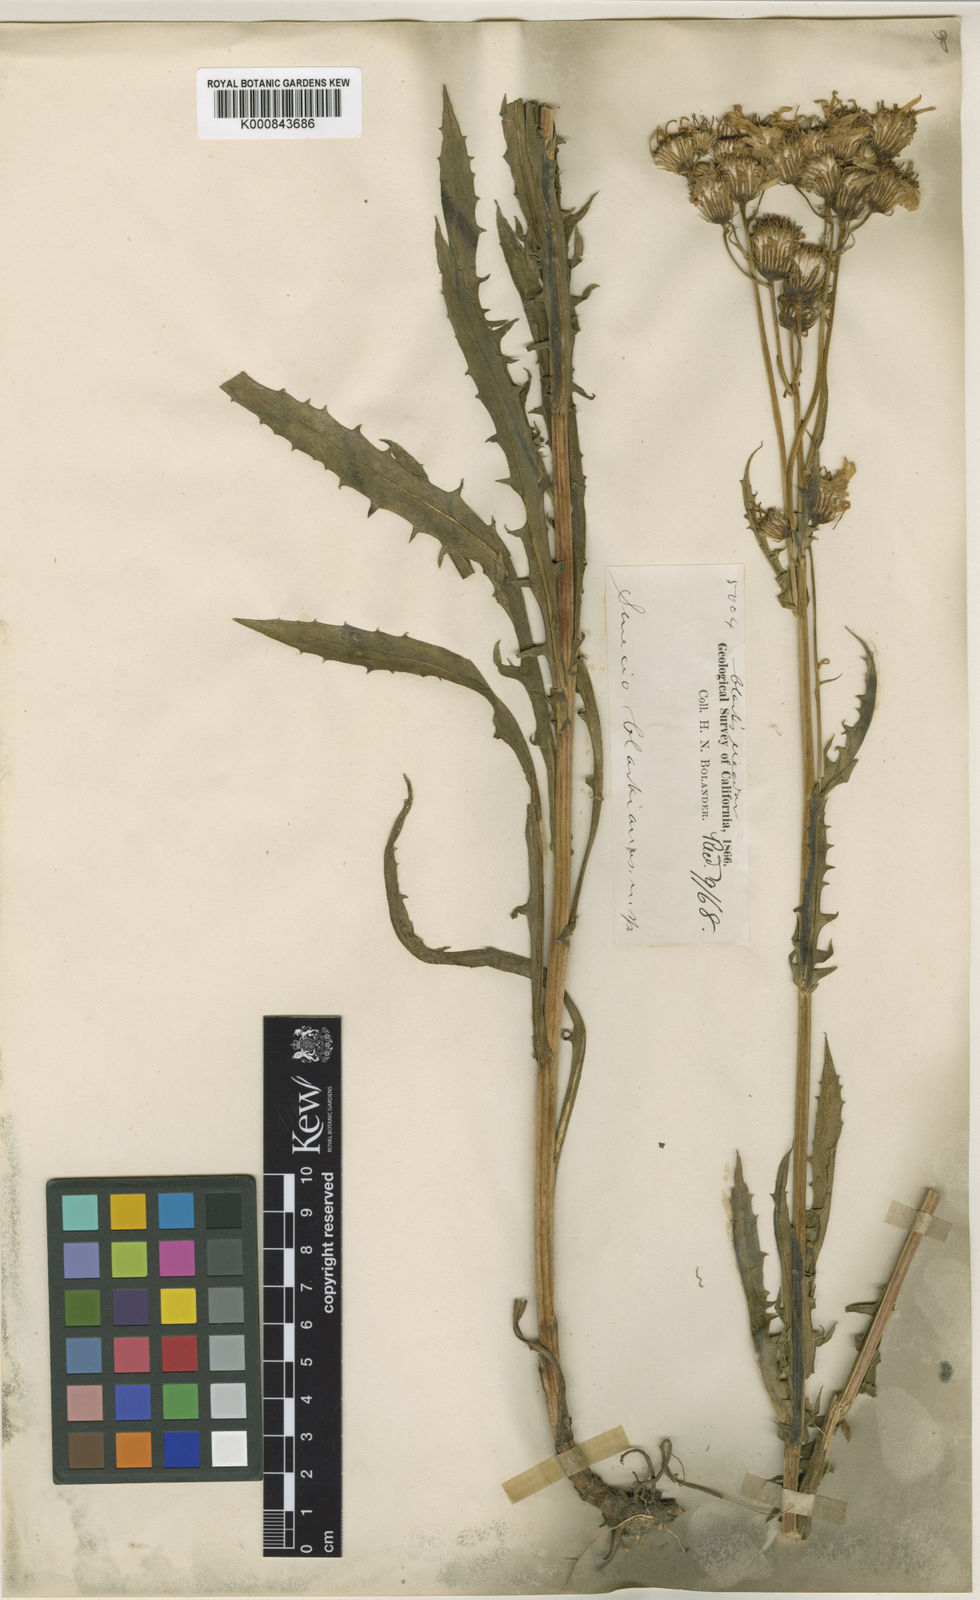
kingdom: Plantae
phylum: Tracheophyta
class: Magnoliopsida
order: Asterales
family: Asteraceae
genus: Senecio
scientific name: Senecio clarkianus
